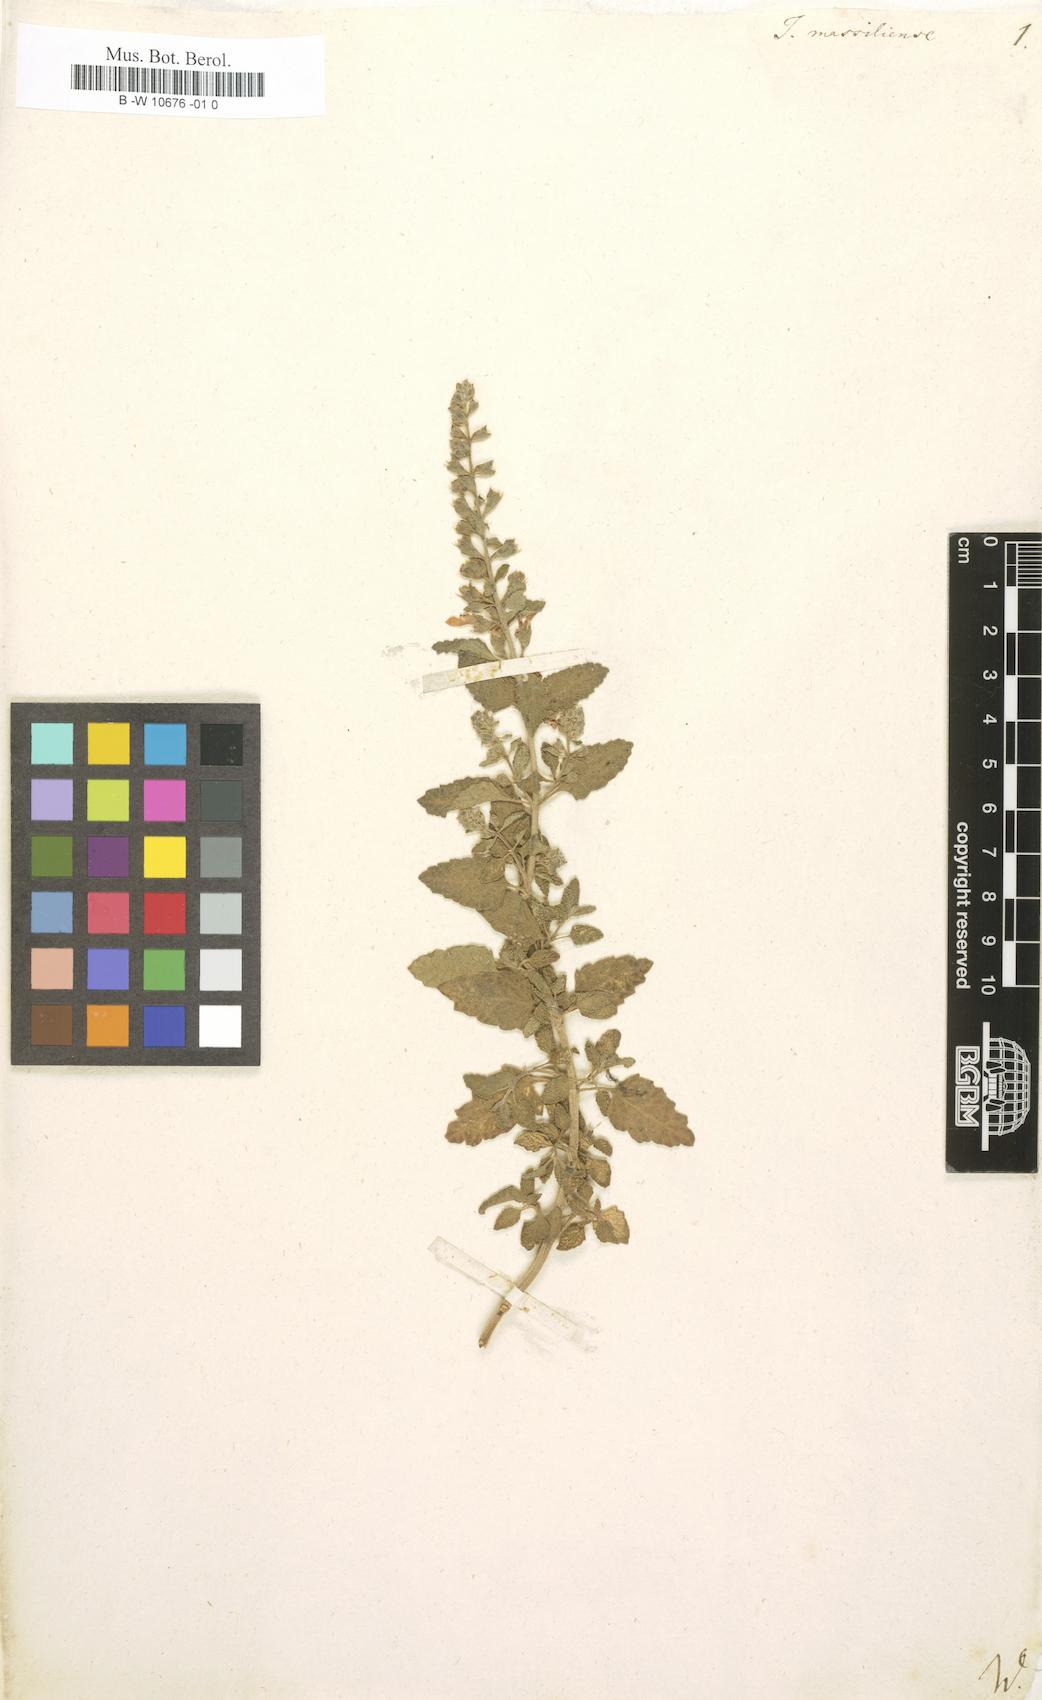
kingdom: Plantae
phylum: Tracheophyta
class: Magnoliopsida
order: Lamiales
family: Lamiaceae
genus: Teucrium
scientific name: Teucrium massiliense
